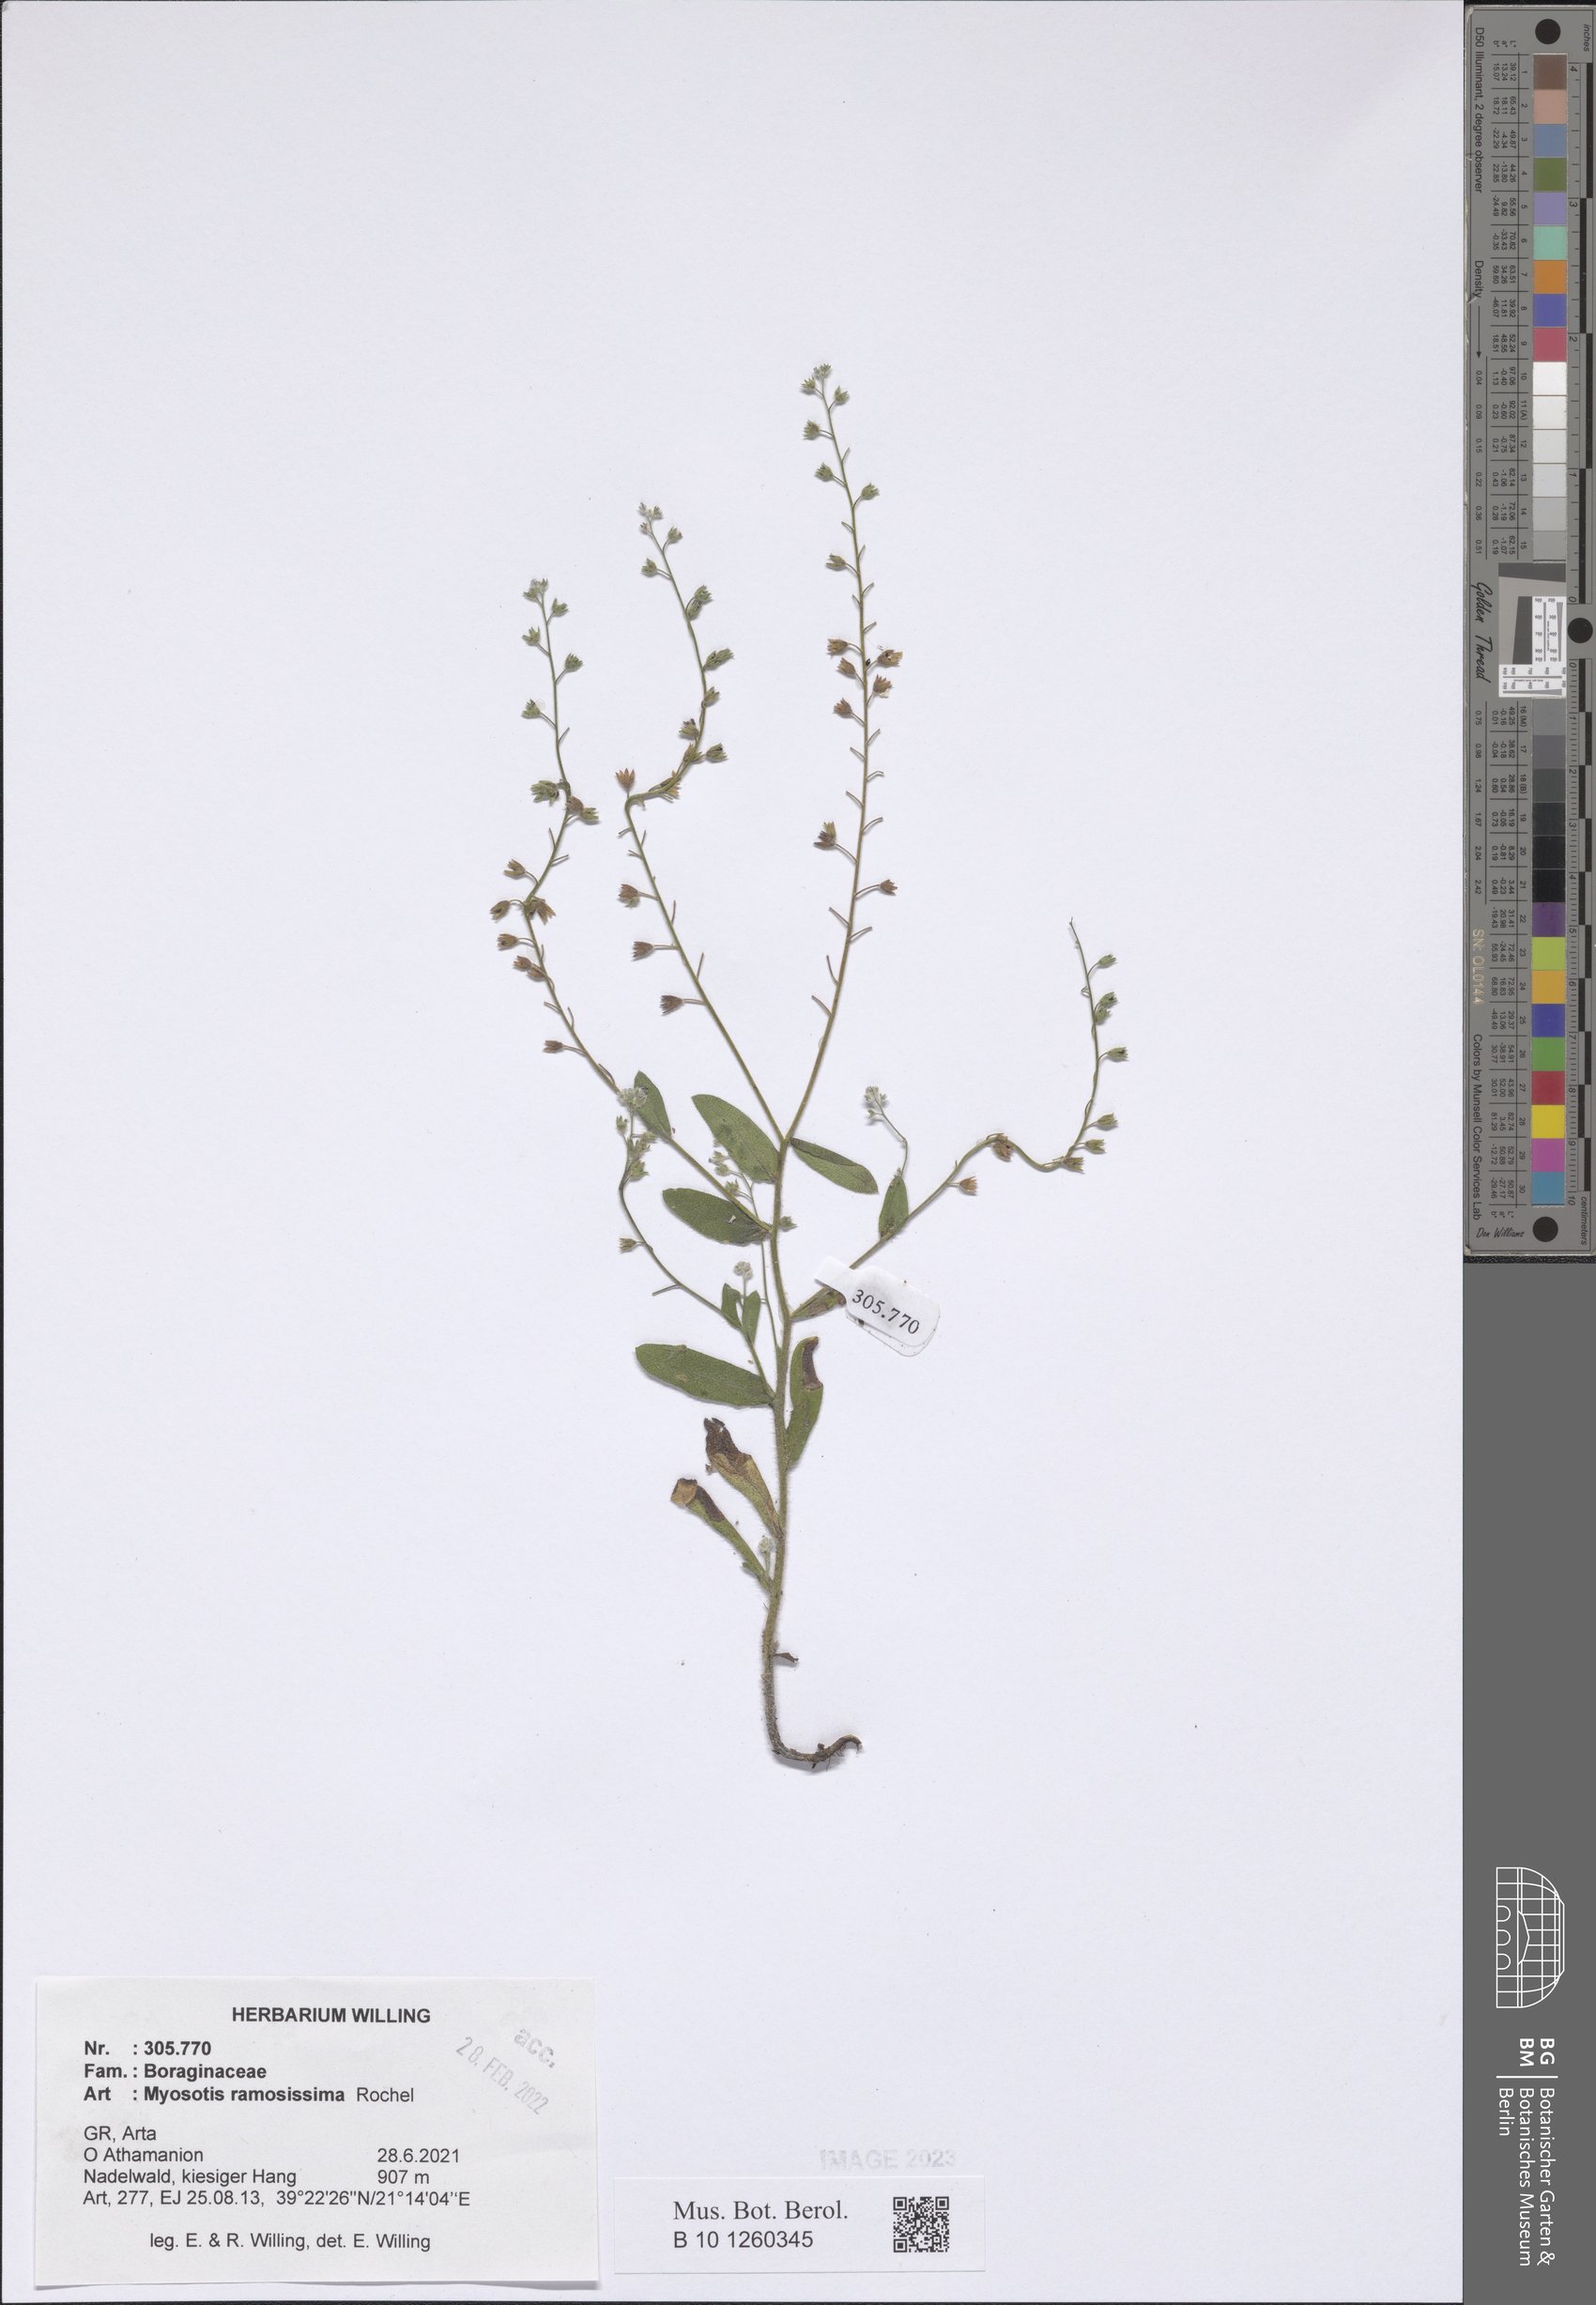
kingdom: Plantae
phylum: Tracheophyta
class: Magnoliopsida
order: Boraginales
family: Boraginaceae
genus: Myosotis
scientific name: Myosotis ramosissima
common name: Early forget-me-not
